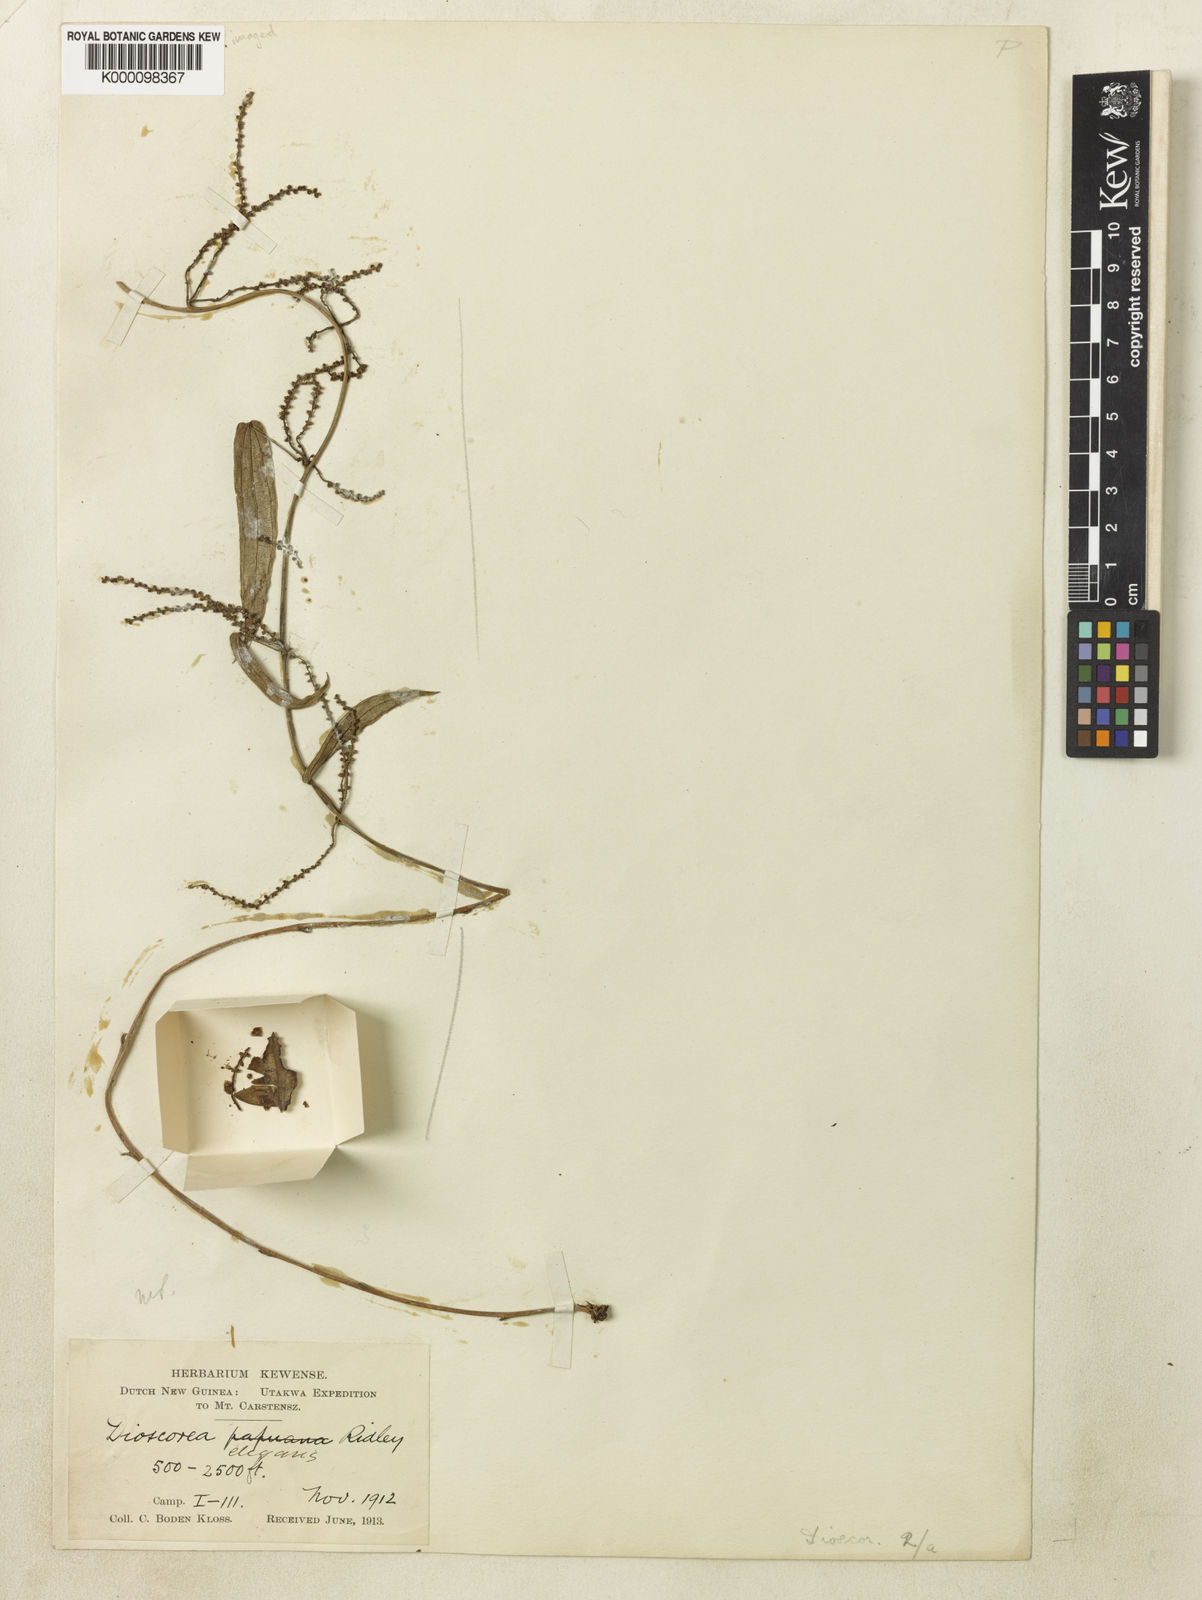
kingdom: Plantae
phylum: Tracheophyta
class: Liliopsida
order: Dioscoreales
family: Dioscoreaceae
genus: Dioscorea
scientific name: Dioscorea elegans
